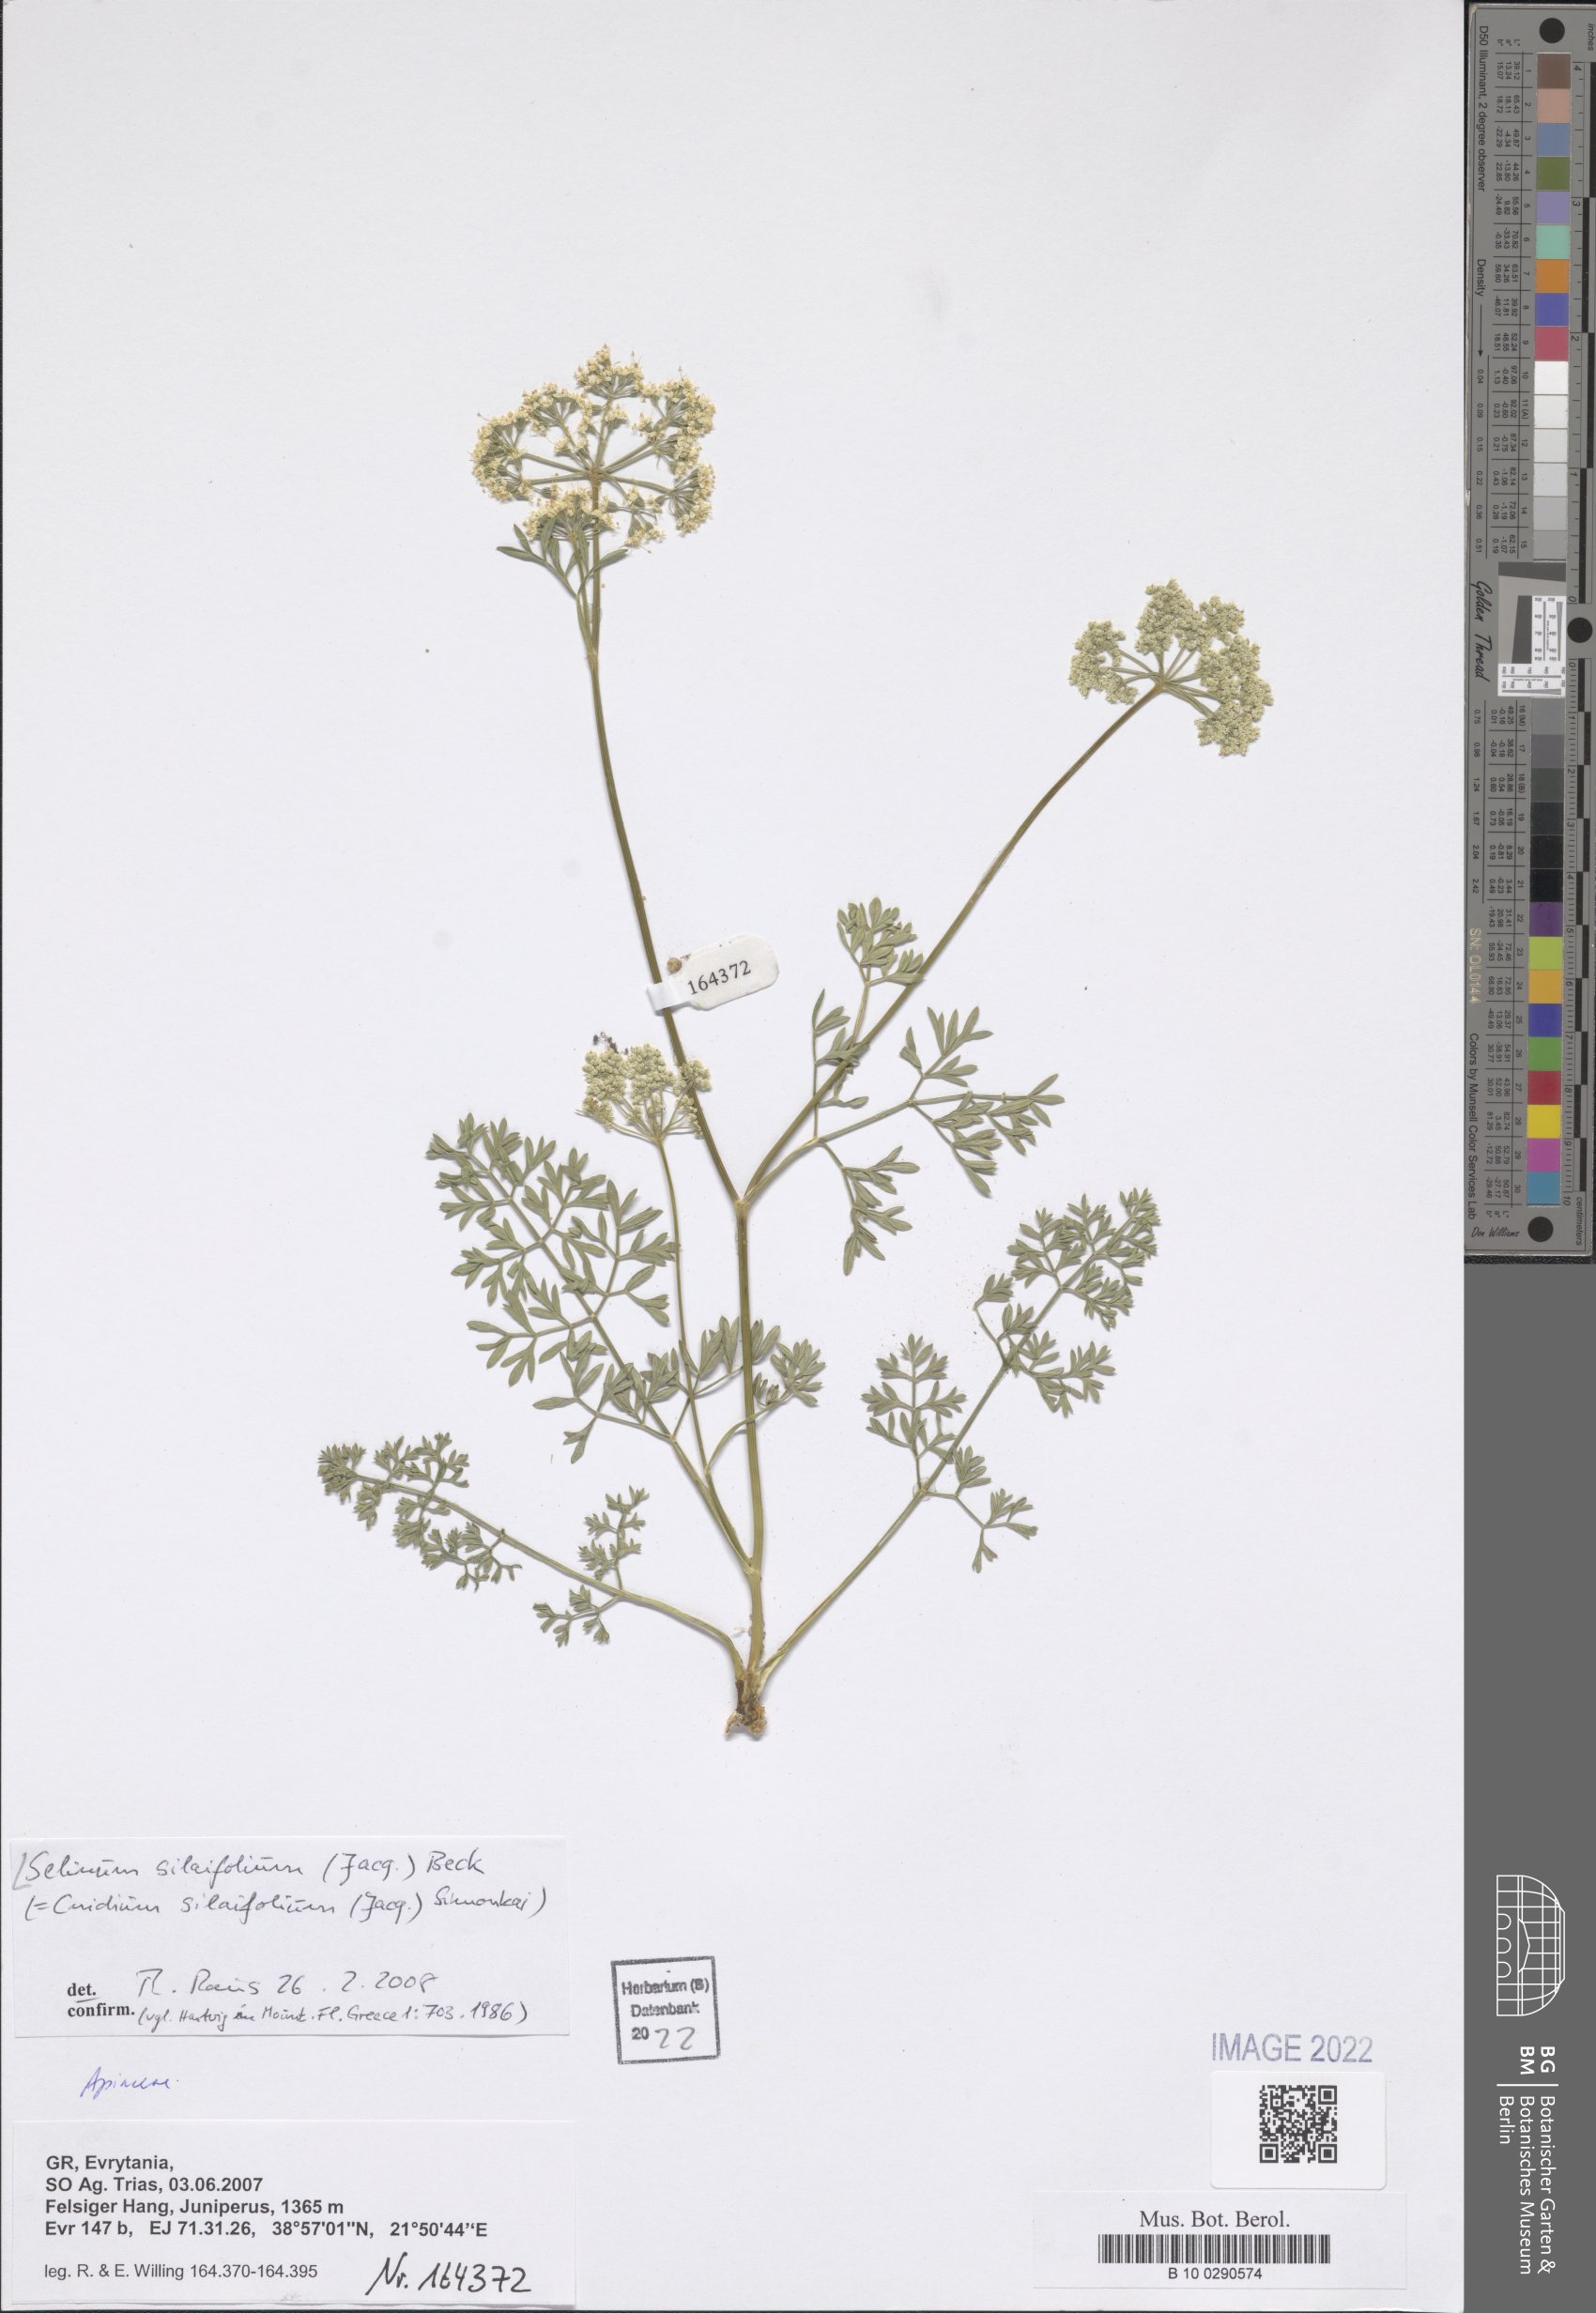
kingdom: Plantae
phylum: Tracheophyta
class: Magnoliopsida
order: Apiales
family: Apiaceae
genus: Katapsuxis
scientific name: Katapsuxis silaifolia
